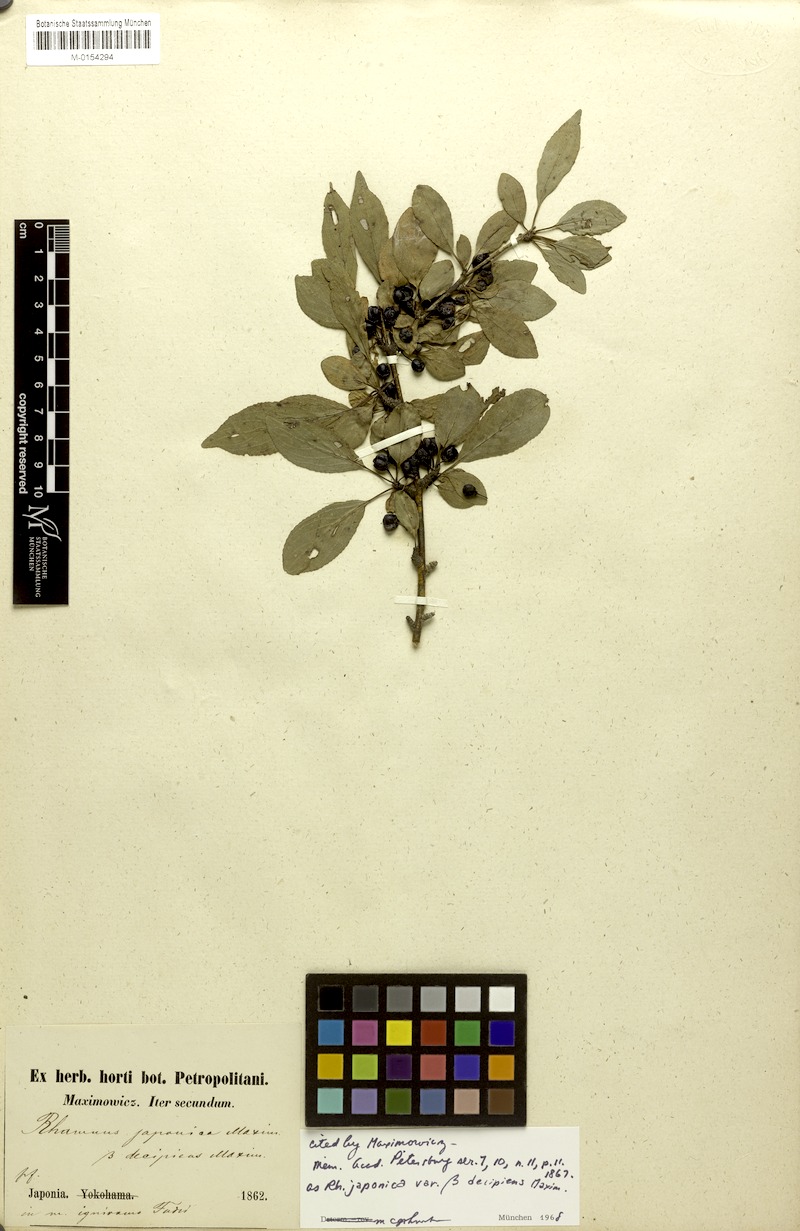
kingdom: Plantae
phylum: Tracheophyta
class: Magnoliopsida
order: Rosales
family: Rhamnaceae
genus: Rhamnus
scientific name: Rhamnus japonica
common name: Japanese buckthorn
